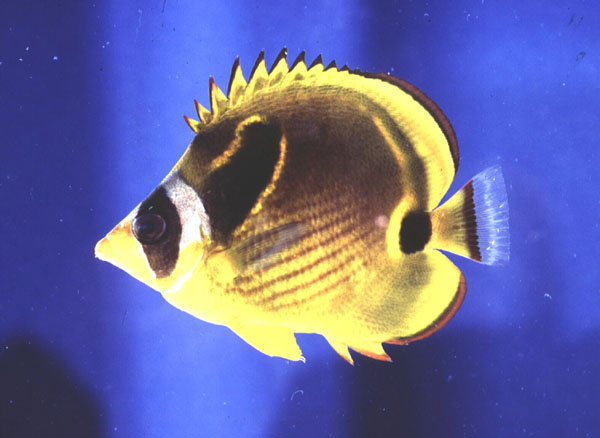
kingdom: Animalia
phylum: Chordata
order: Perciformes
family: Chaetodontidae
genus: Chaetodon
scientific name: Chaetodon lunula
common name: Raccoon butterflyfish
